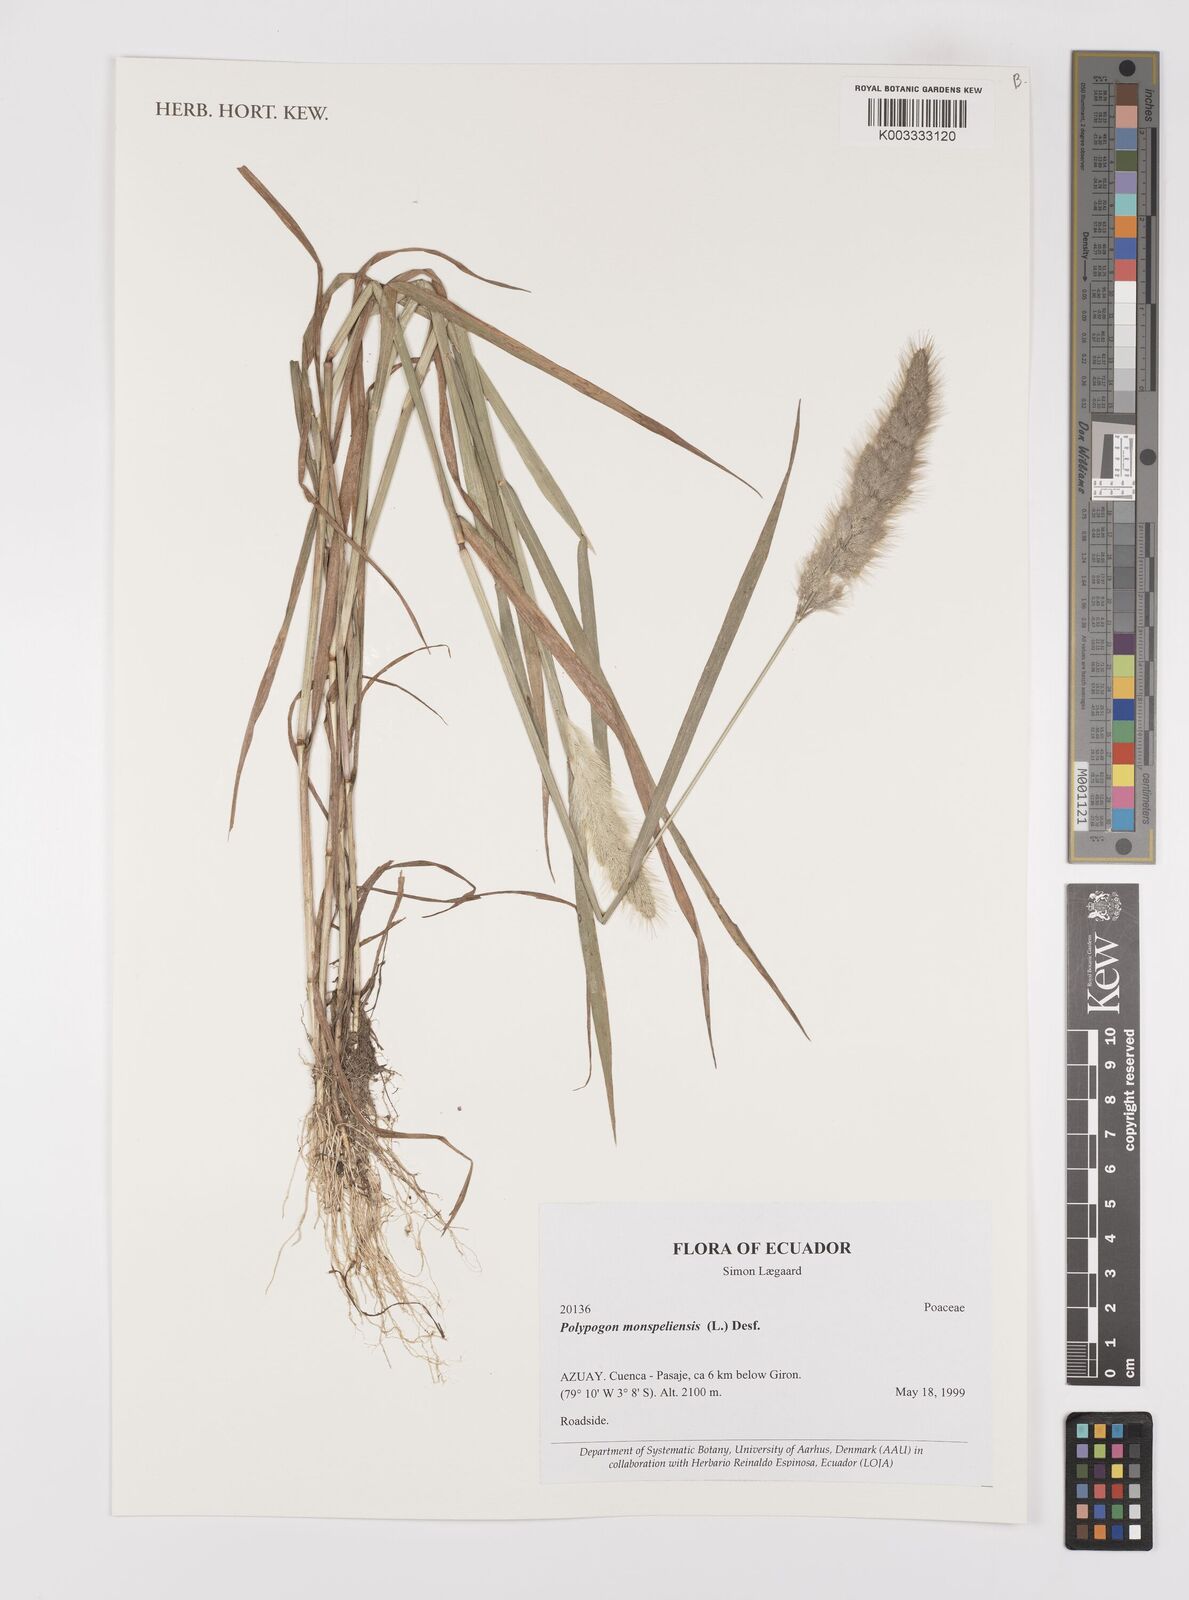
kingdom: Plantae
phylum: Tracheophyta
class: Liliopsida
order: Poales
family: Poaceae
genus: Polypogon
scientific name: Polypogon monspeliensis
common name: Annual rabbitsfoot grass
